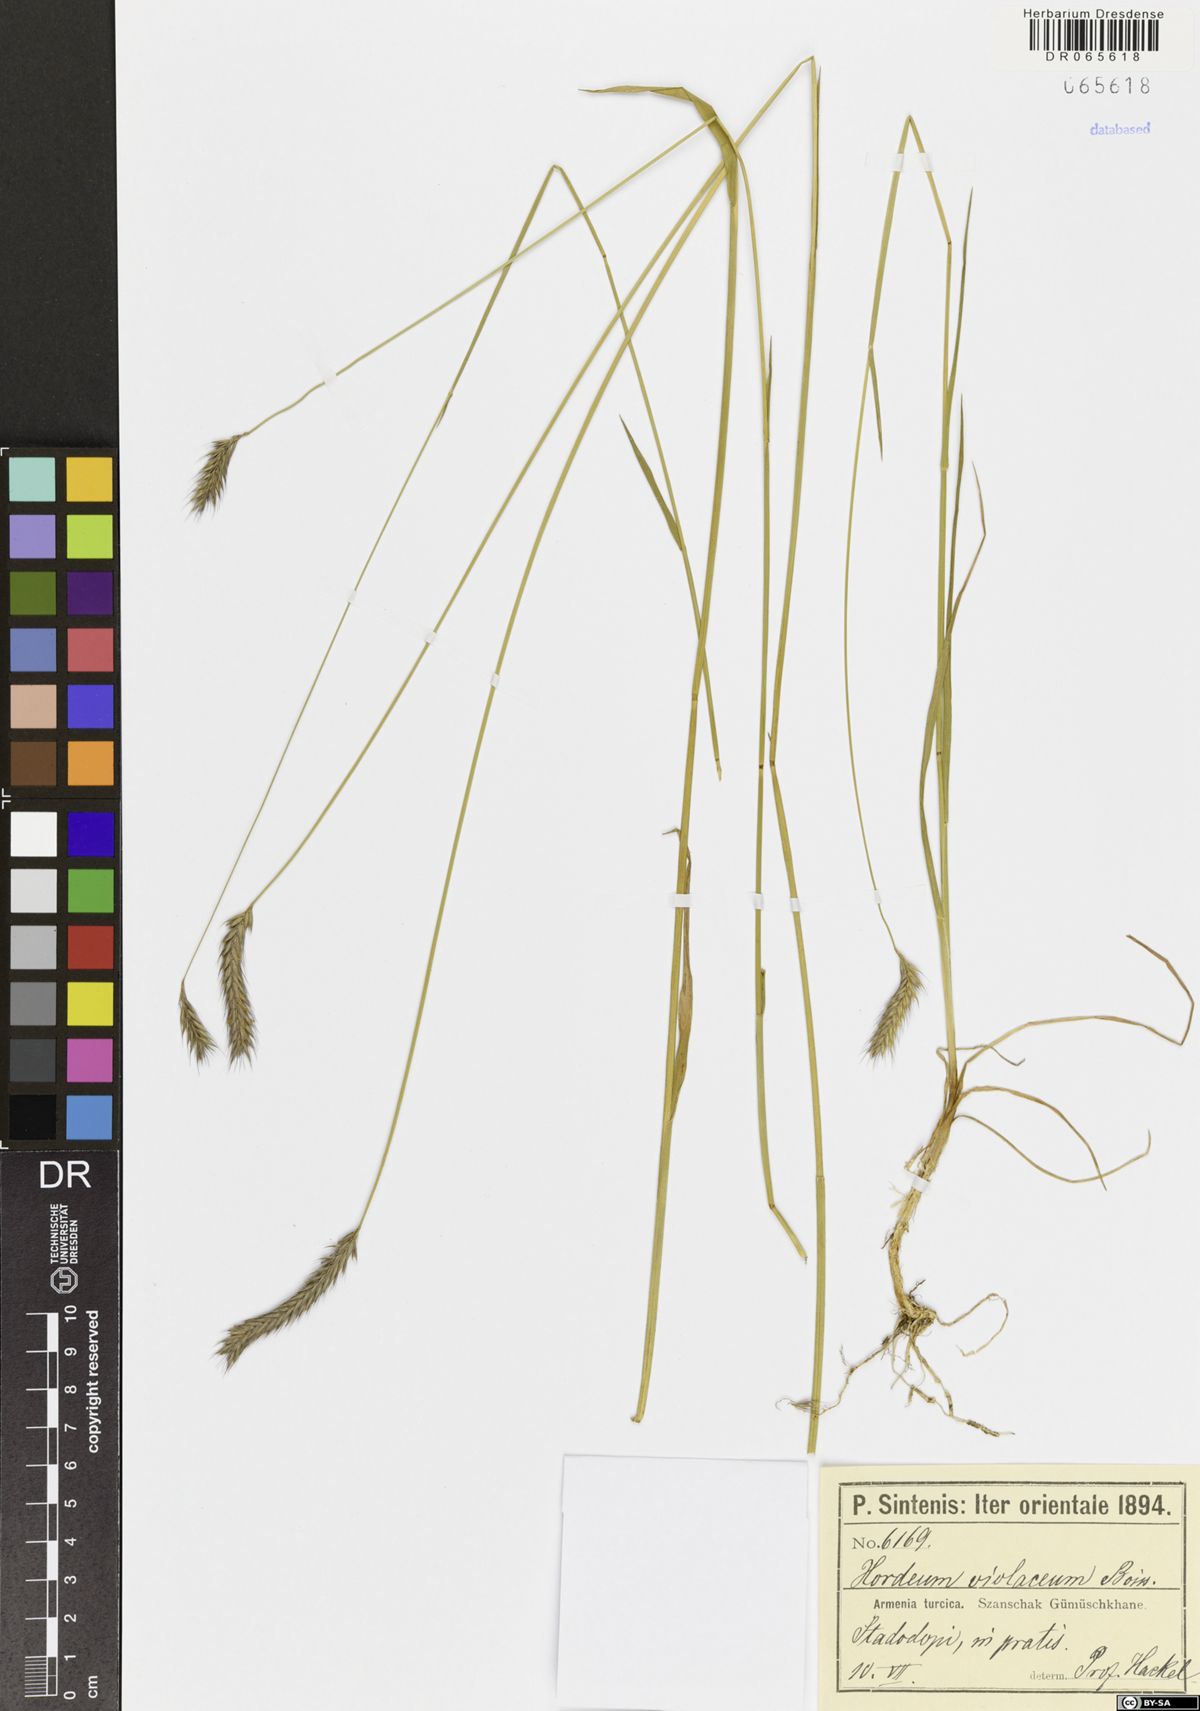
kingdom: Plantae
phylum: Tracheophyta
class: Liliopsida
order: Poales
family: Poaceae
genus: Hordeum
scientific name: Hordeum brevisubulatum
